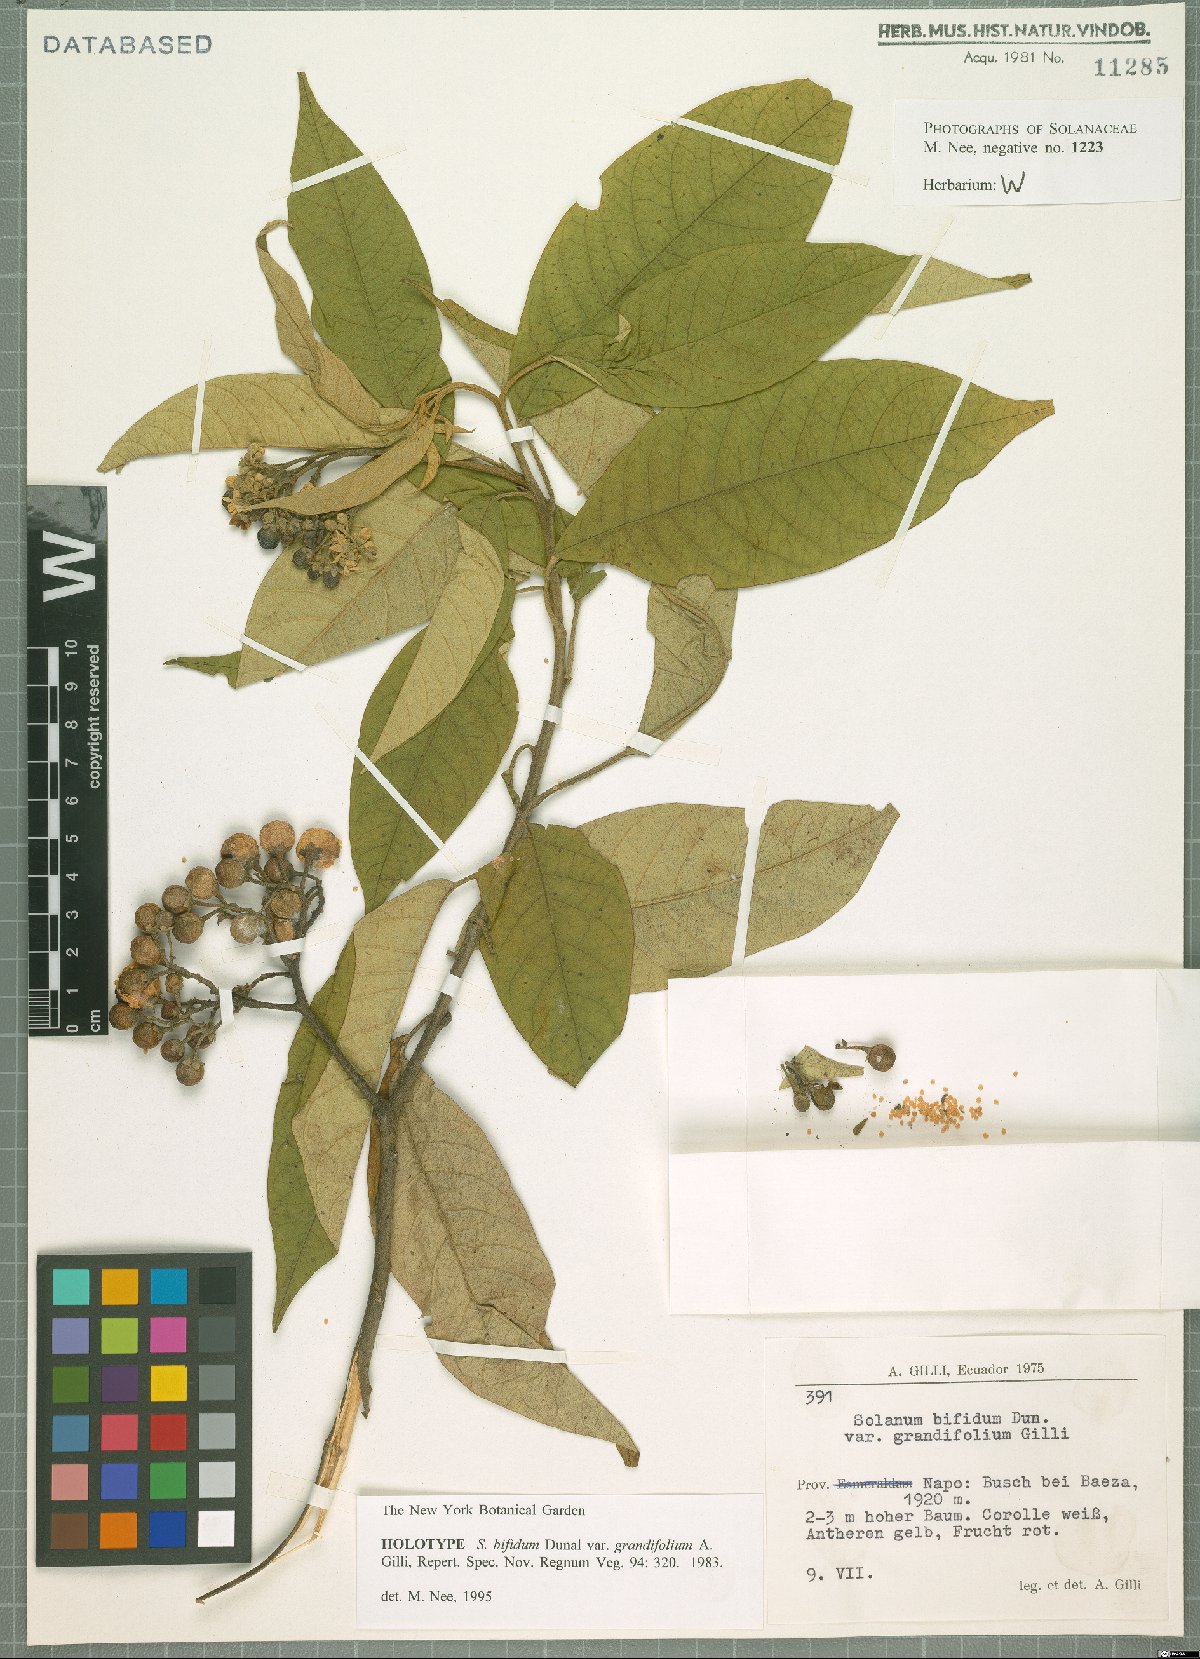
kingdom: Plantae
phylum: Tracheophyta
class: Magnoliopsida
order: Solanales
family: Solanaceae
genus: Solanum
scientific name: Solanum verecundum
